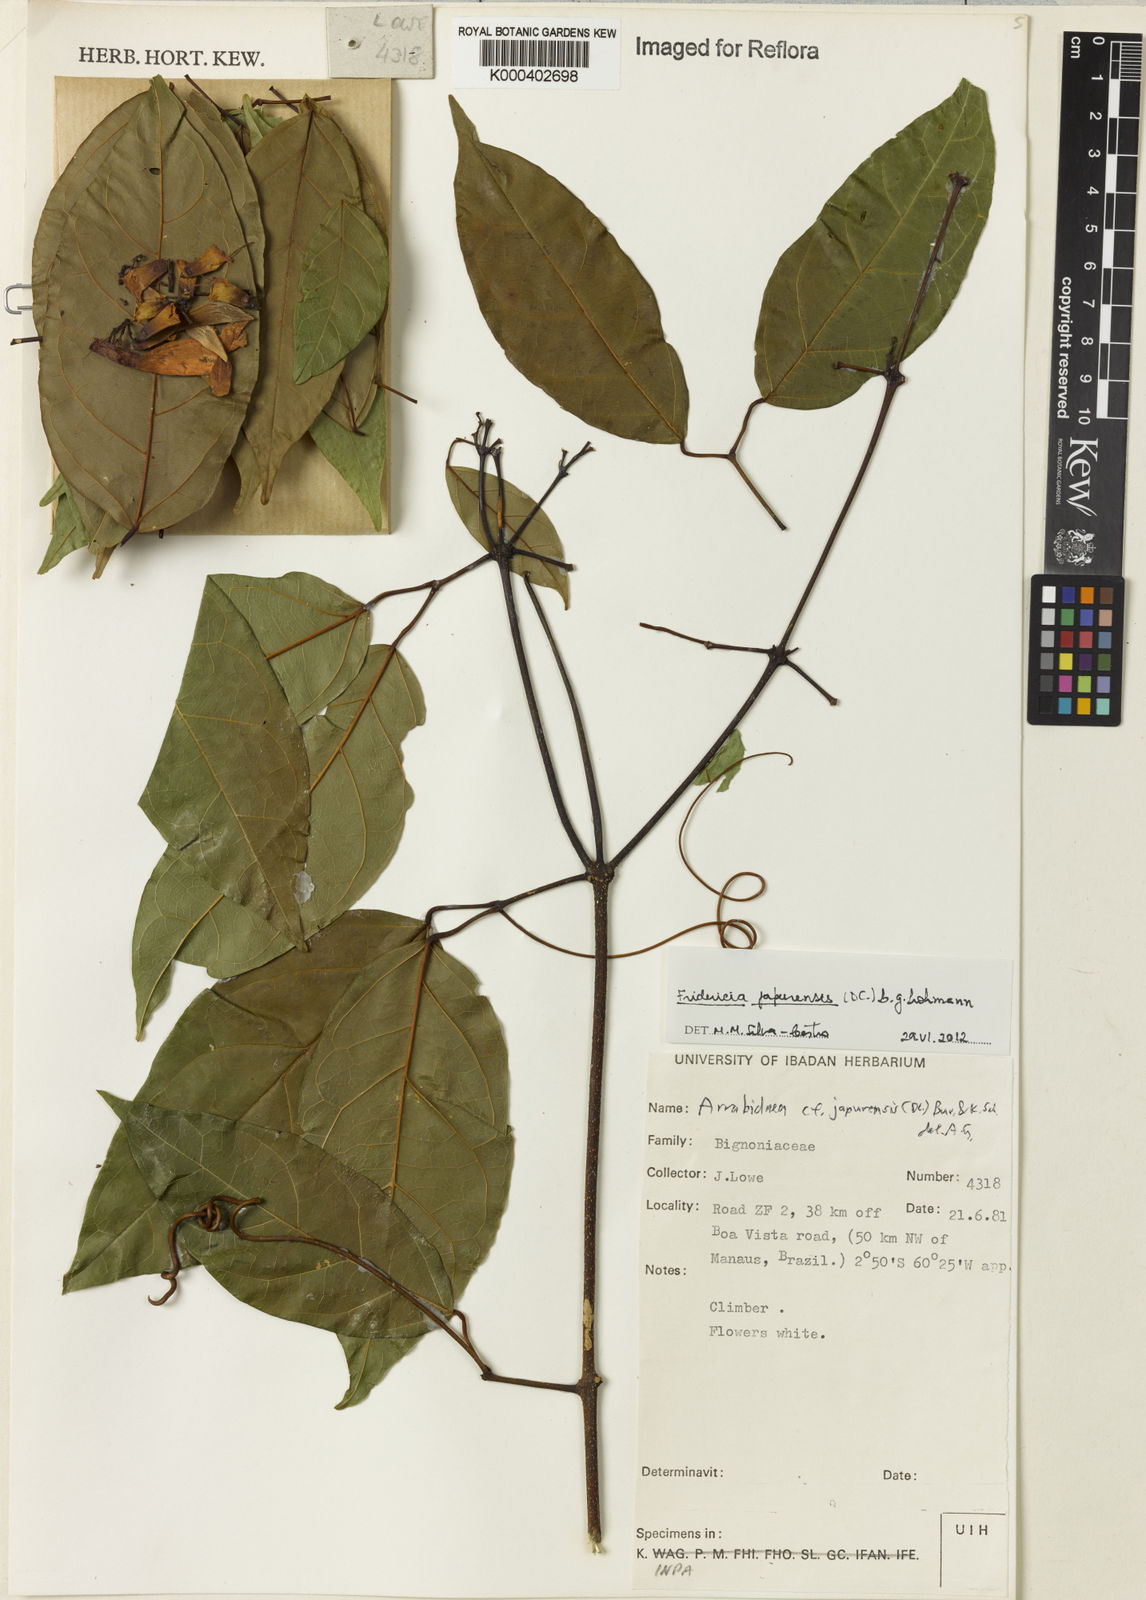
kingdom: Plantae
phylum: Tracheophyta
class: Magnoliopsida
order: Lamiales
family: Bignoniaceae
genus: Fridericia
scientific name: Fridericia japurensis
